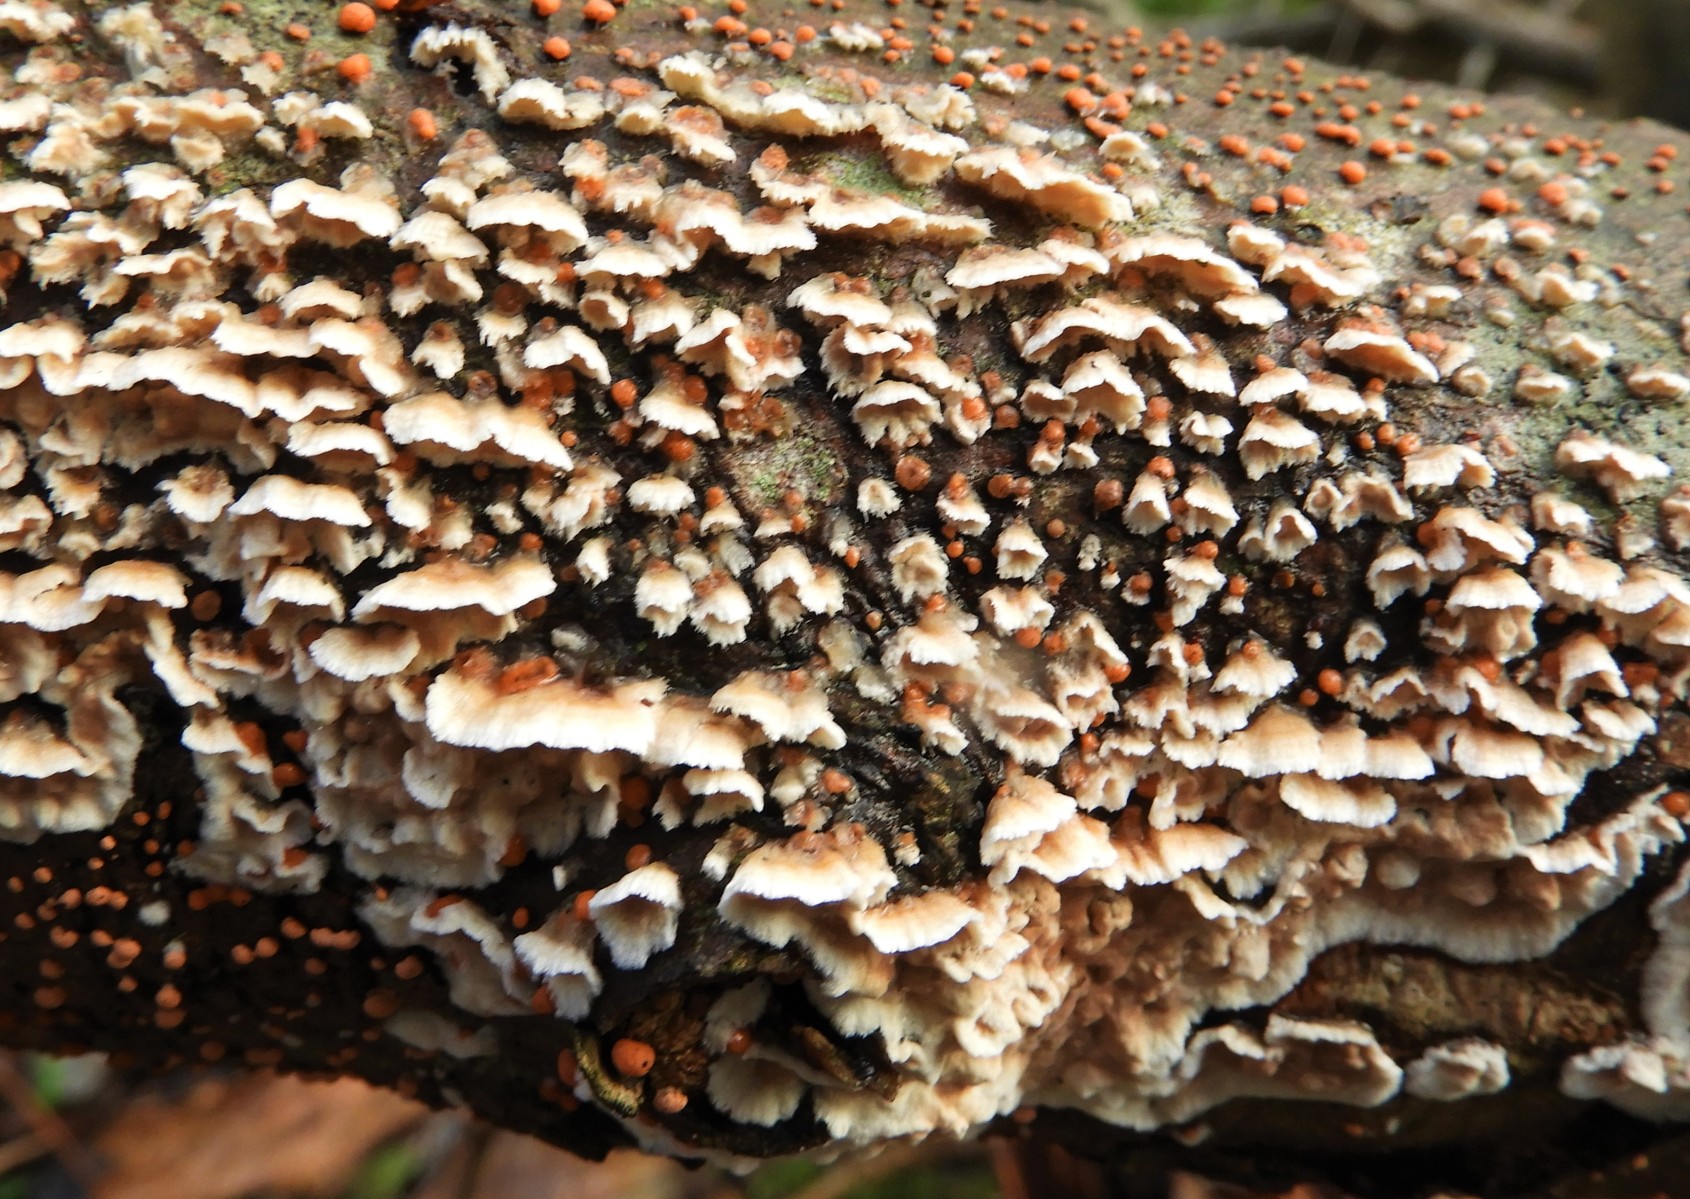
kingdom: Fungi
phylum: Basidiomycota
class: Agaricomycetes
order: Amylocorticiales
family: Amylocorticiaceae
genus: Plicaturopsis
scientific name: Plicaturopsis crispa
